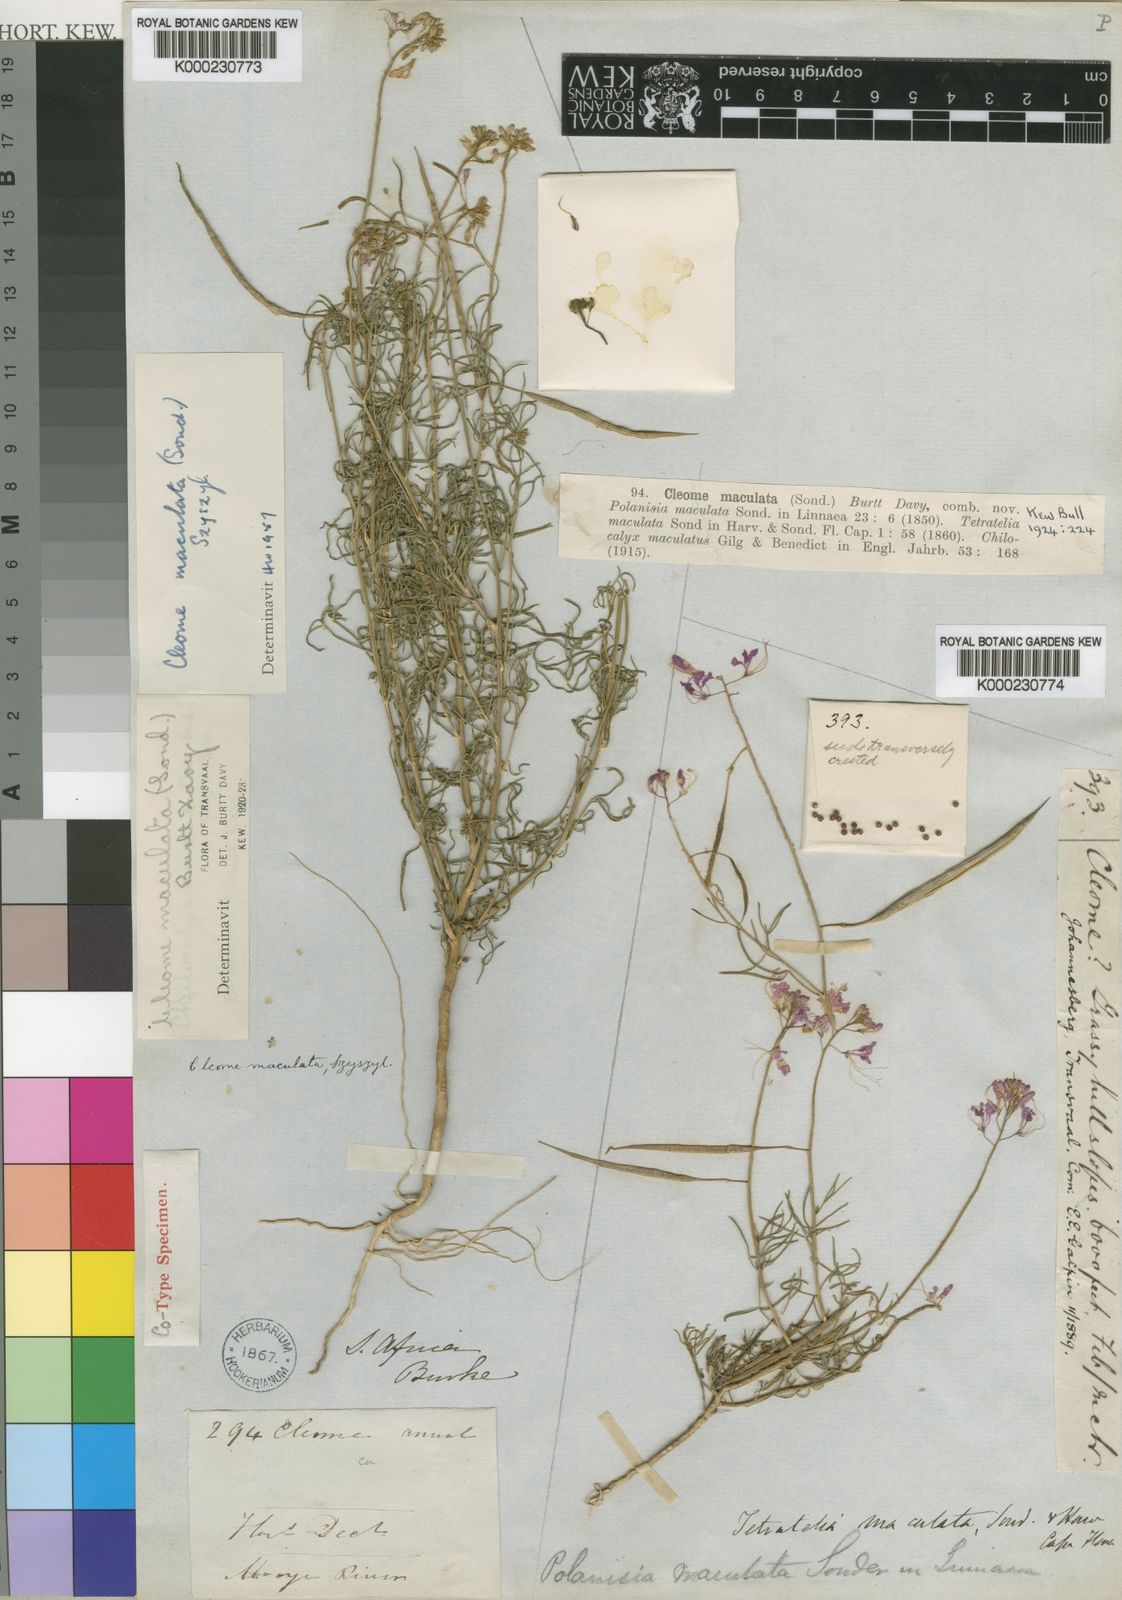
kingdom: Plantae
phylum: Tracheophyta
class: Magnoliopsida
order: Brassicales
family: Cleomaceae
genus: Cleome
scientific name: Cleome
